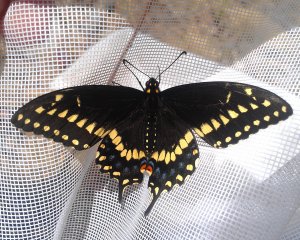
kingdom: Animalia
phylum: Arthropoda
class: Insecta
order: Lepidoptera
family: Papilionidae
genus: Papilio
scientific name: Papilio polyxenes
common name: Black Swallowtail
